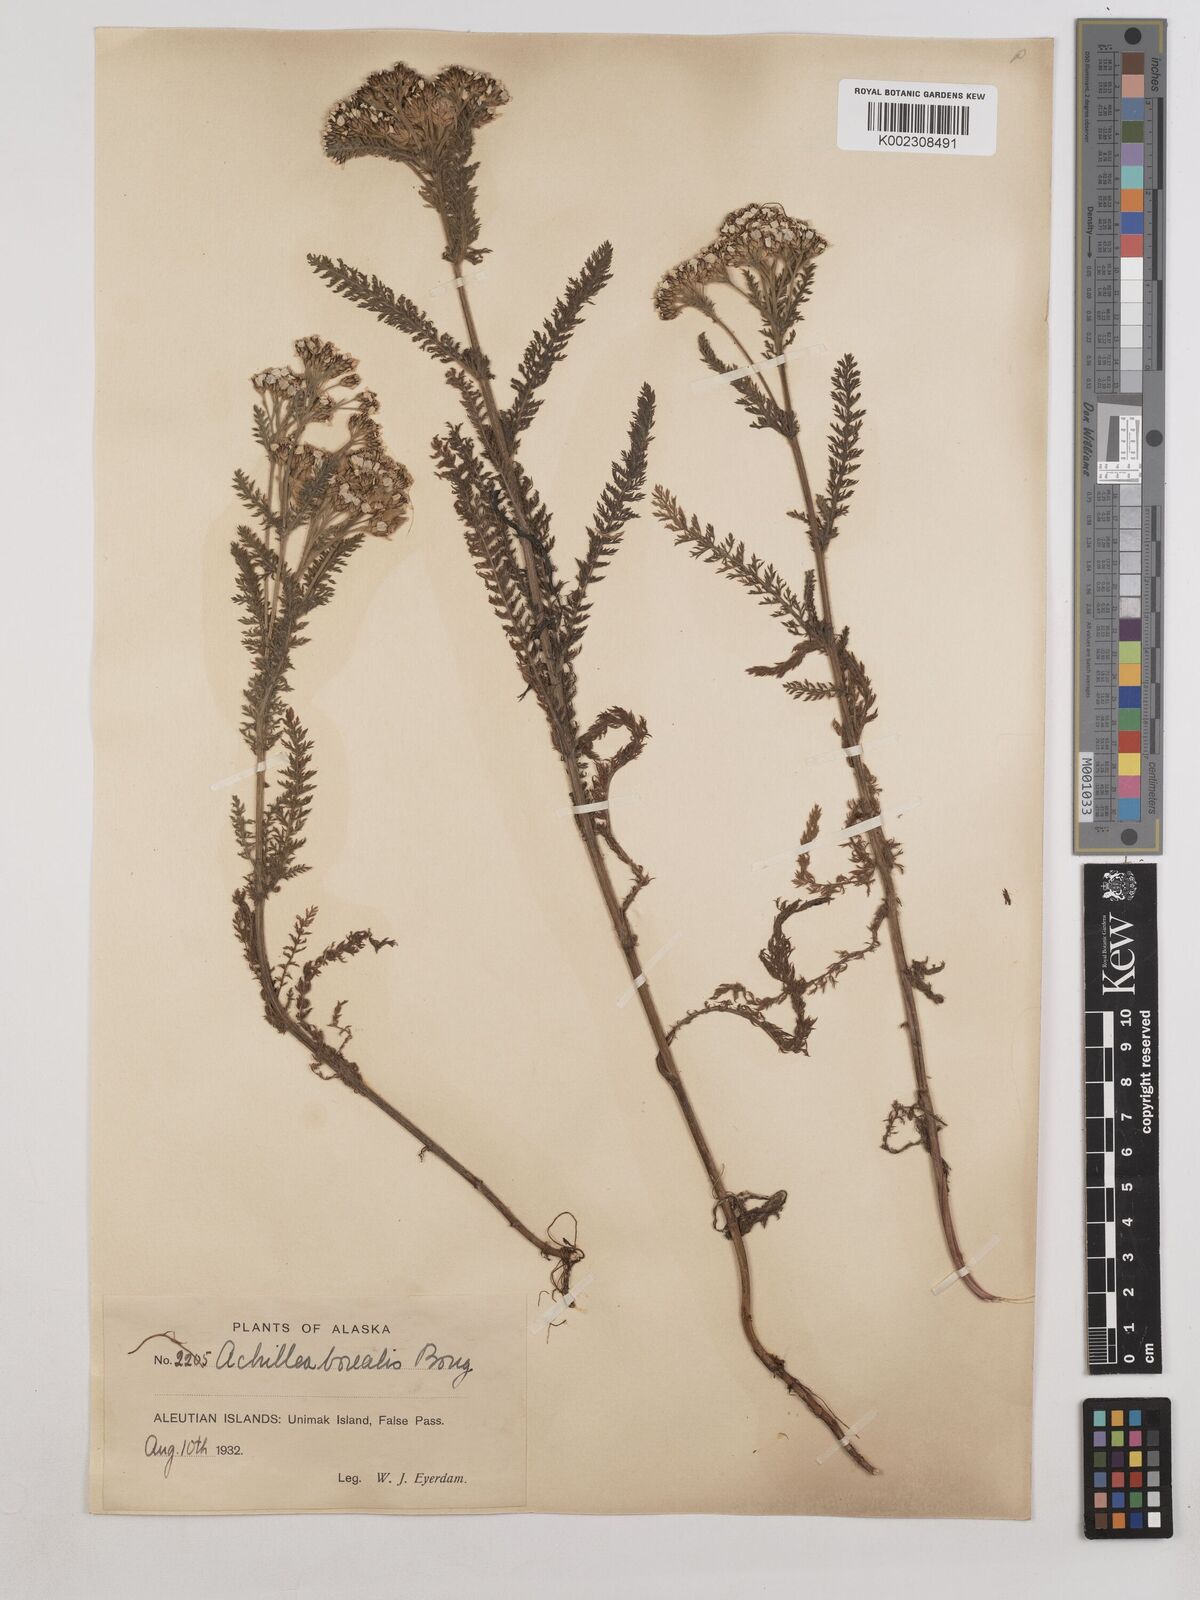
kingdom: Plantae
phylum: Tracheophyta
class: Magnoliopsida
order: Asterales
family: Asteraceae
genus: Achillea
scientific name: Achillea millefolium
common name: Yarrow
